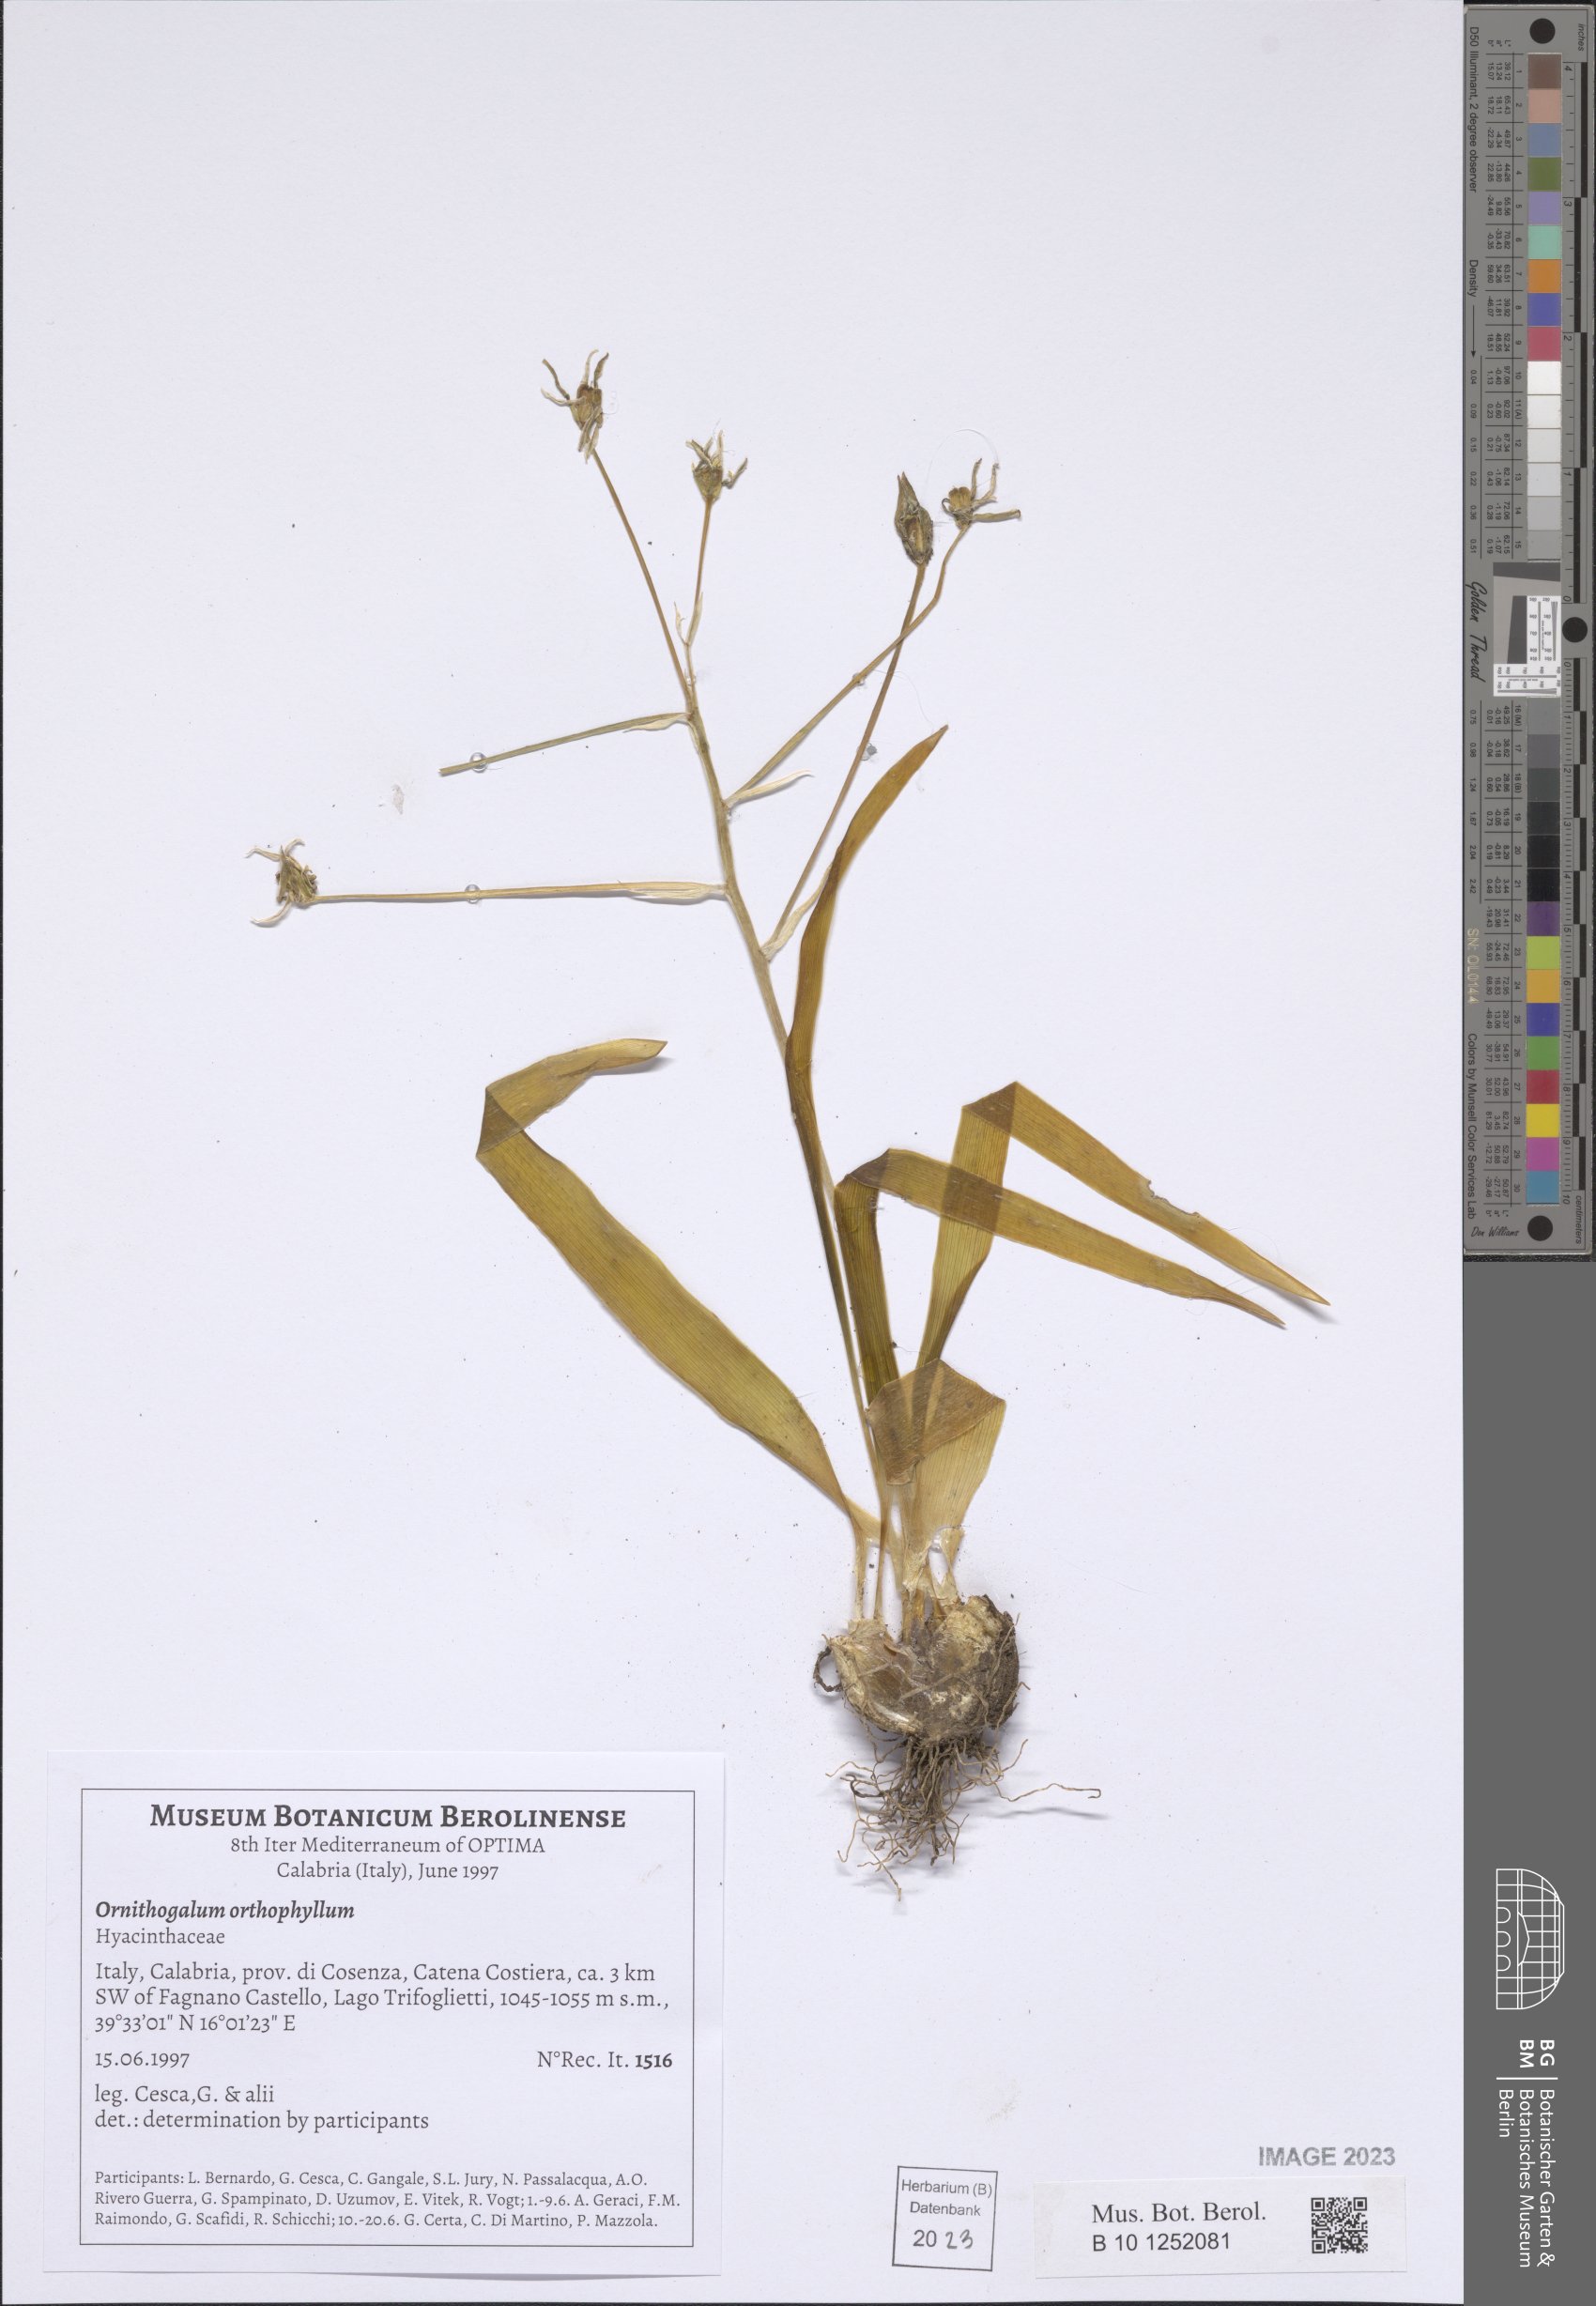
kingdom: Plantae
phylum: Tracheophyta
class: Liliopsida
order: Asparagales
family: Asparagaceae
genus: Ornithogalum
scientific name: Ornithogalum orthophyllum
